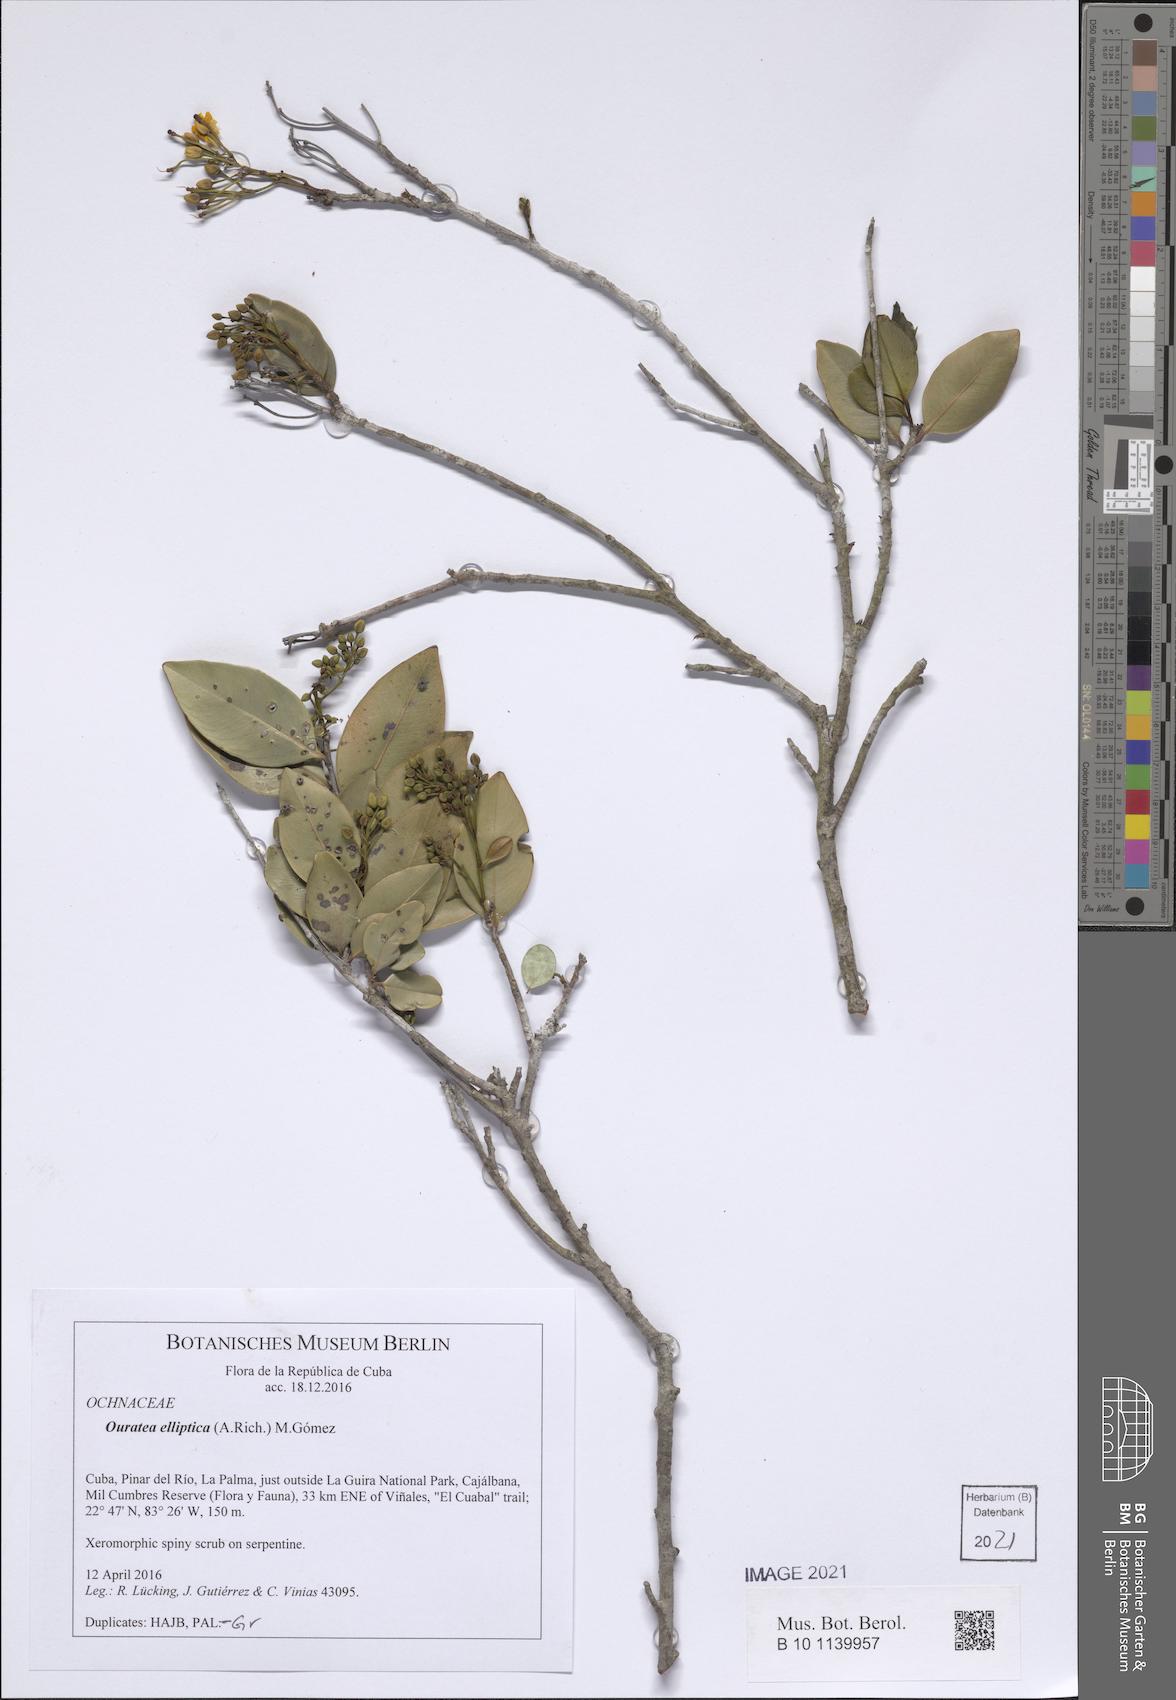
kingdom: Plantae
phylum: Tracheophyta
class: Magnoliopsida
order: Malpighiales
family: Ochnaceae
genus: Ouratea
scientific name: Ouratea elliptica
